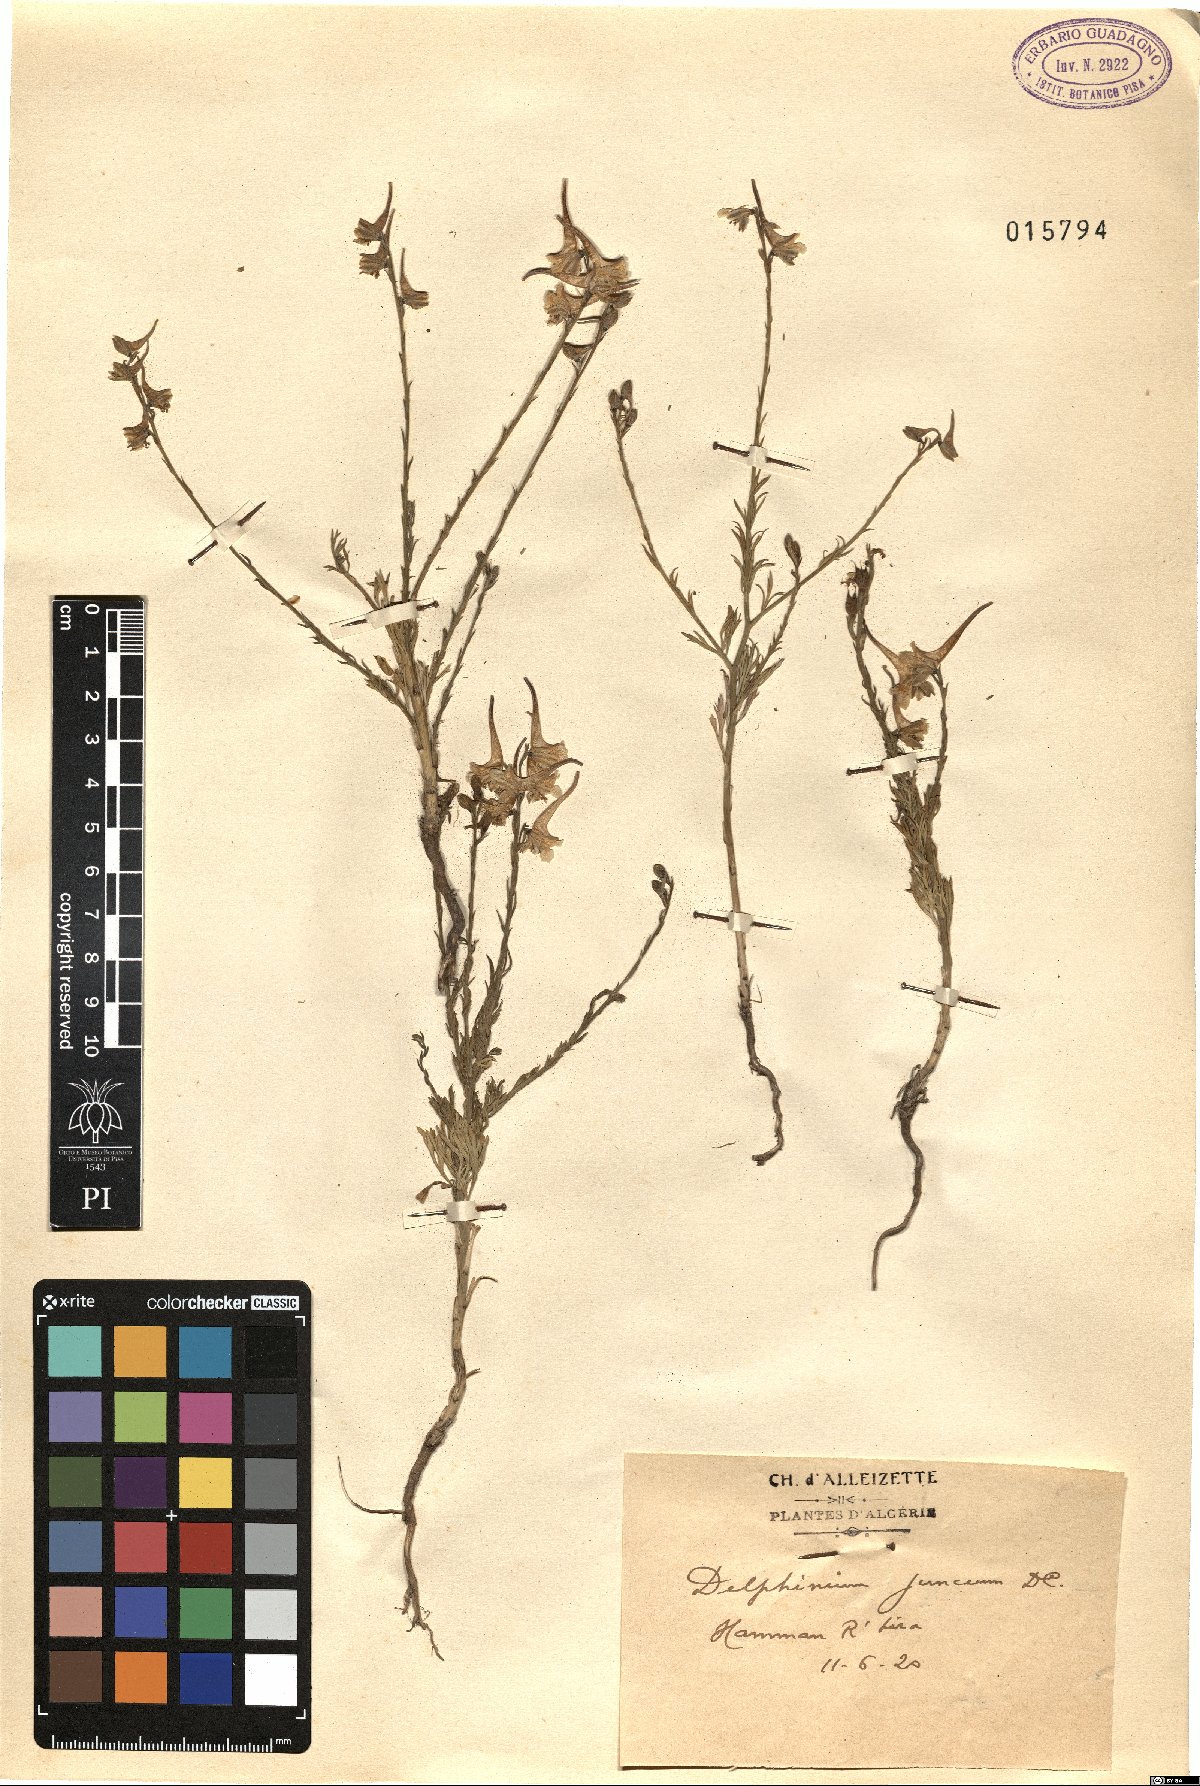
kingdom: Plantae
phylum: Tracheophyta
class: Magnoliopsida
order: Ranunculales
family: Ranunculaceae
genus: Delphinium
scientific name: Delphinium peregrinum
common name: Violet larkspur
